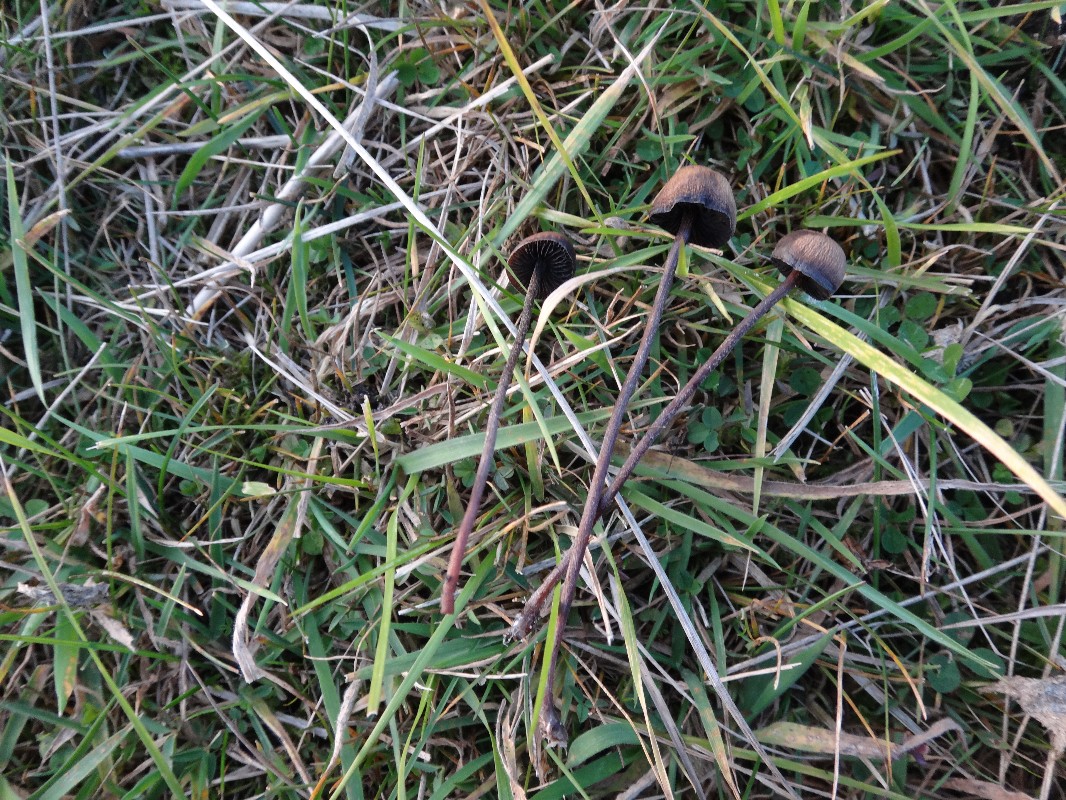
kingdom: Fungi
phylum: Basidiomycota
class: Agaricomycetes
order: Agaricales
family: Bolbitiaceae
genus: Panaeolus
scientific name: Panaeolus acuminatus
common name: høj glanshat
